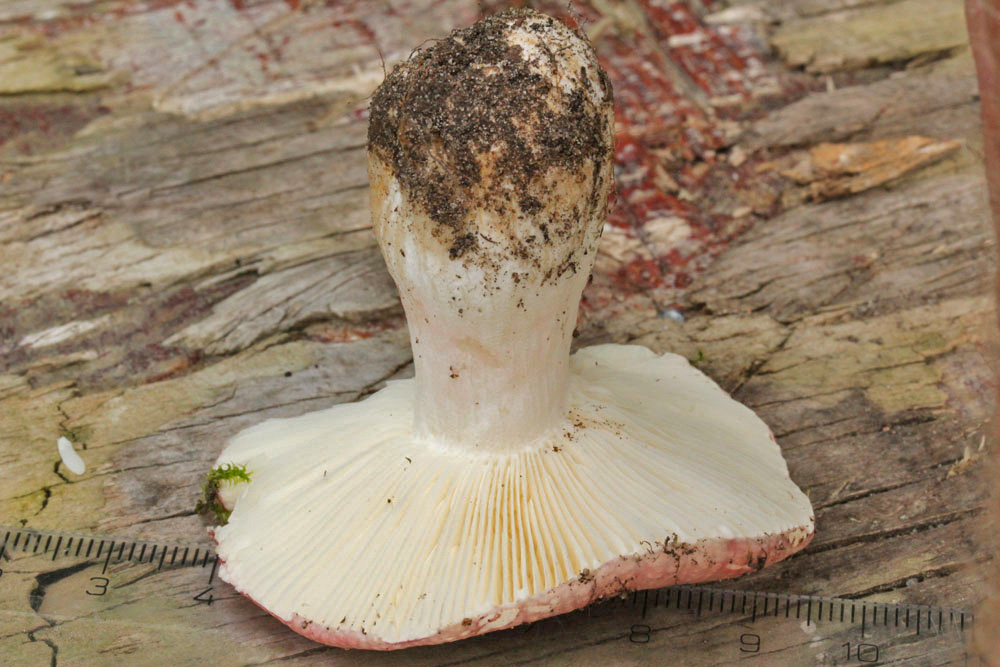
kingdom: Fungi
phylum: Basidiomycota
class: Agaricomycetes
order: Russulales
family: Russulaceae
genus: Russula
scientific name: Russula depallens
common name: falmende skørhat
